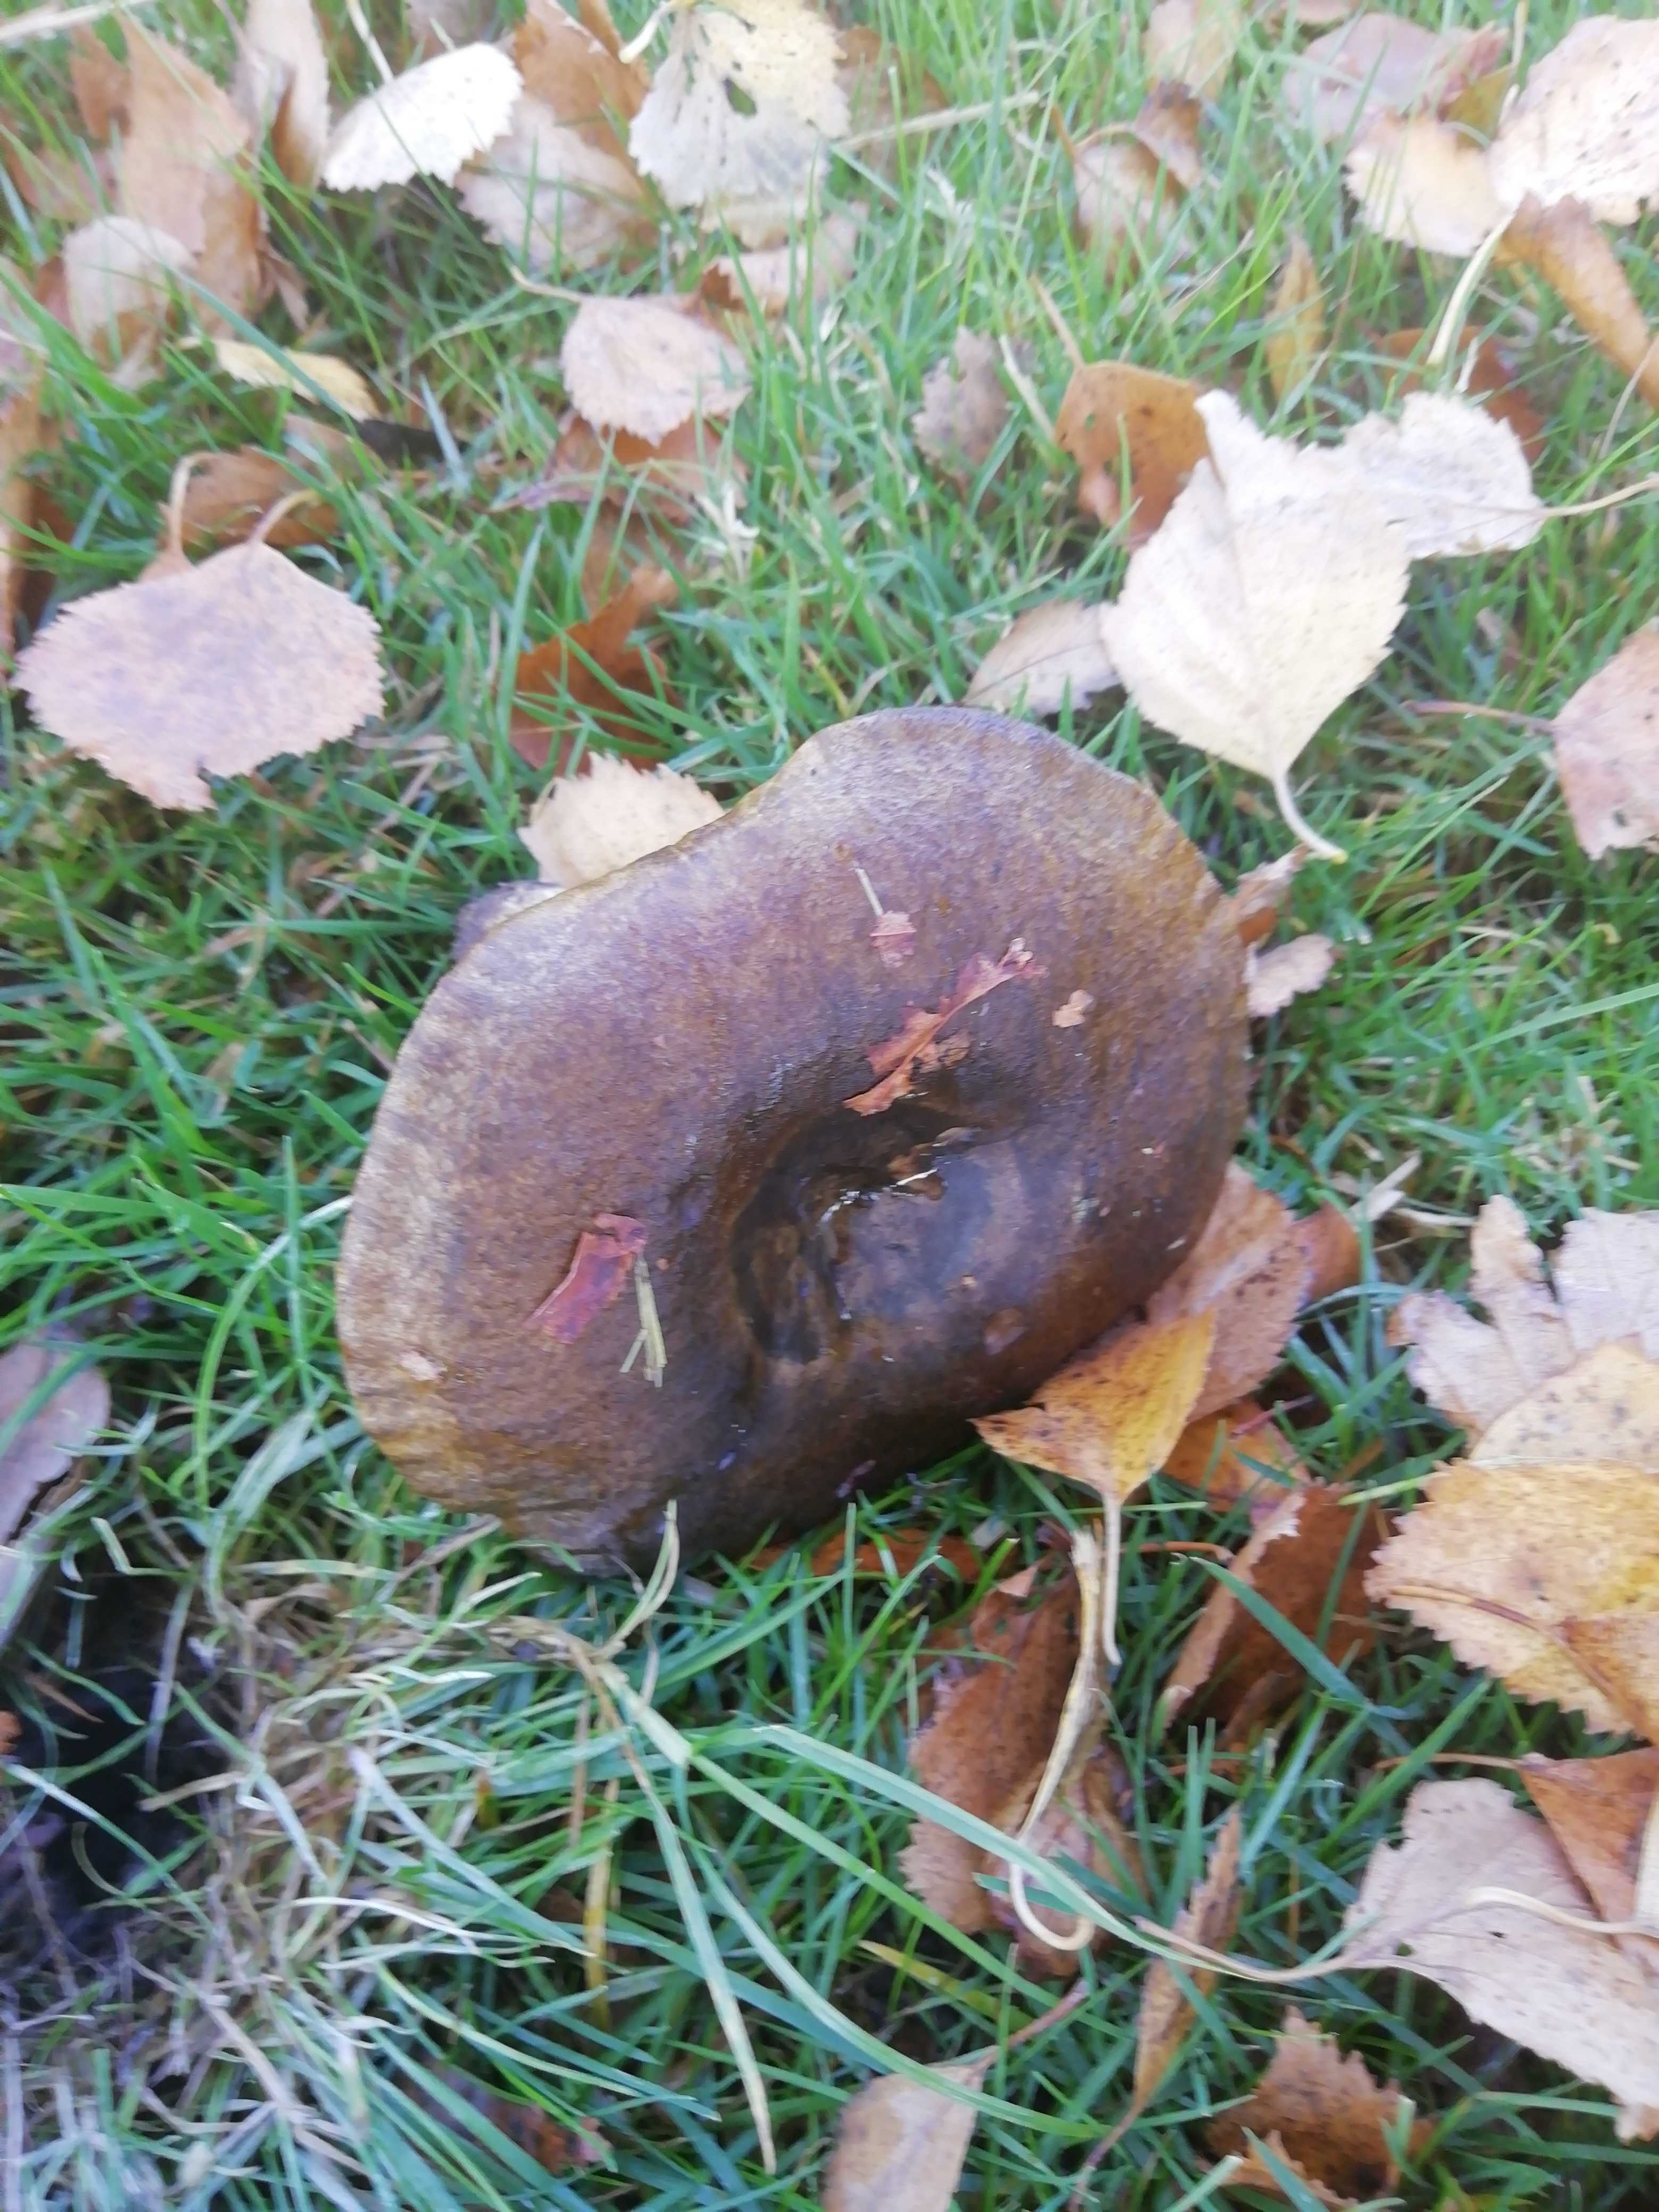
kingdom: Fungi
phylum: Basidiomycota
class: Agaricomycetes
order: Russulales
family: Russulaceae
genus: Lactarius
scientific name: Lactarius necator
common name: manddraber-mælkehat
